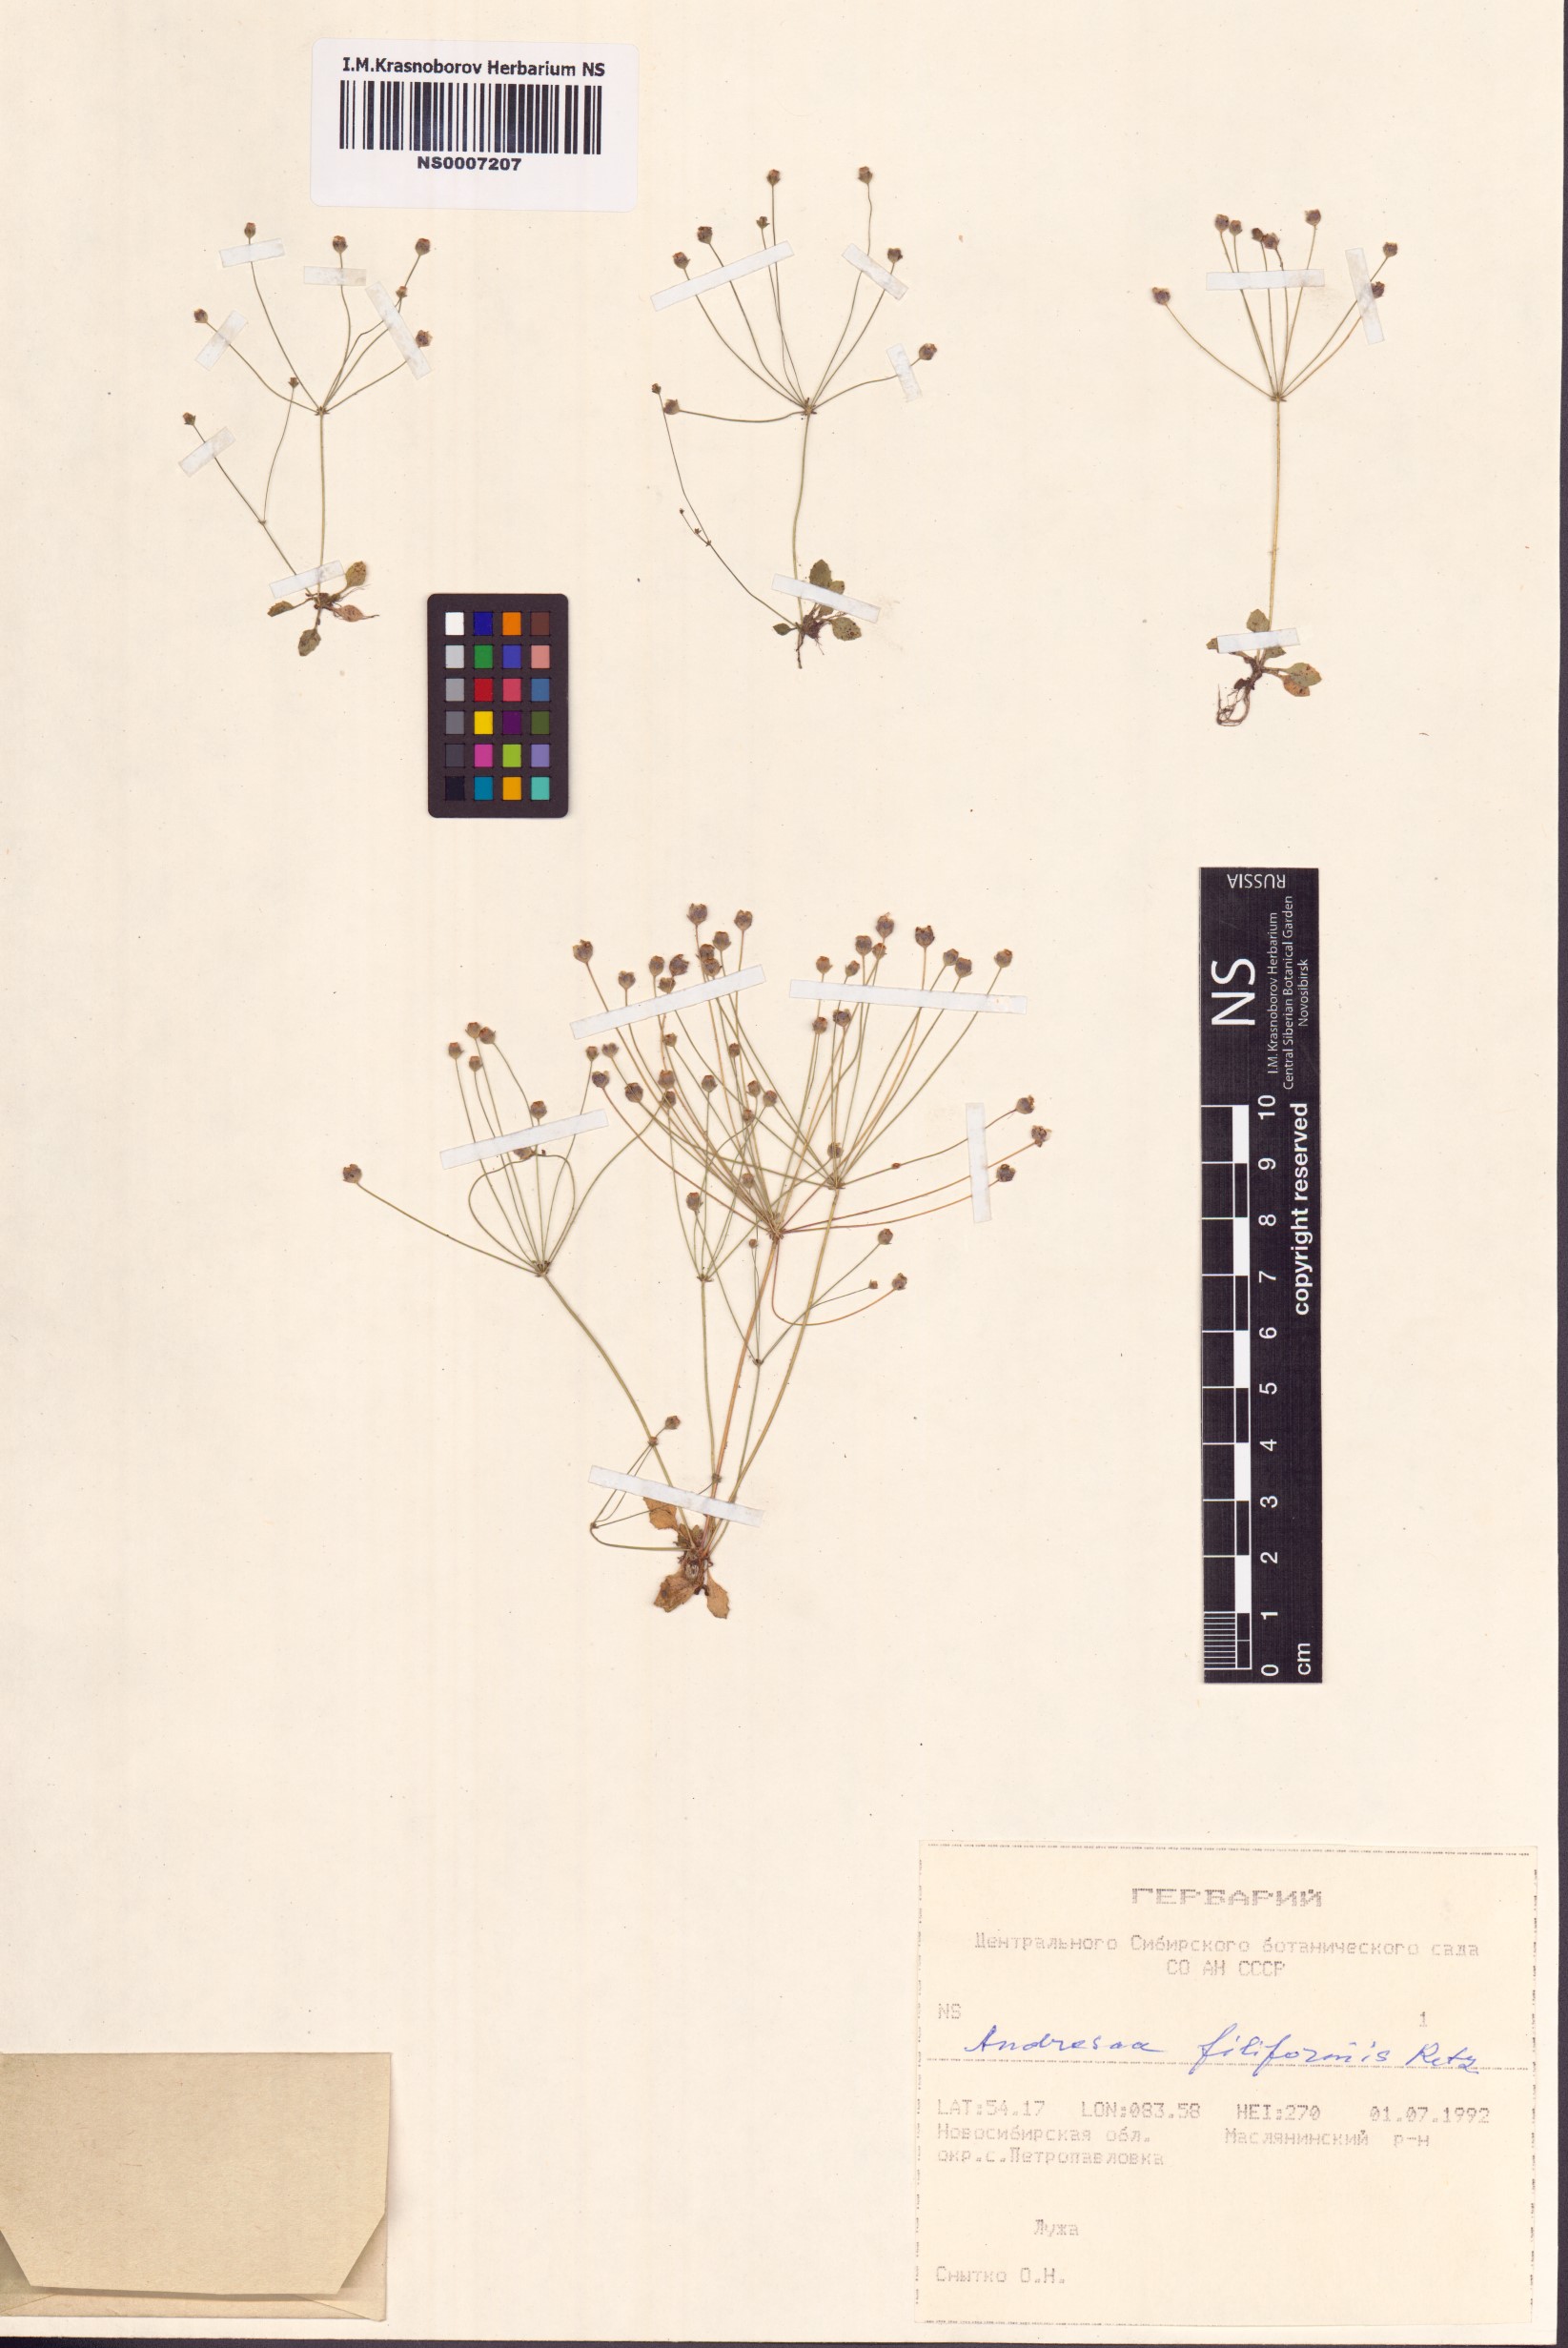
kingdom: Plantae
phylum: Tracheophyta
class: Magnoliopsida
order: Ericales
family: Primulaceae
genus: Androsace
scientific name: Androsace filiformis
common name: Filiform rock jasmine
